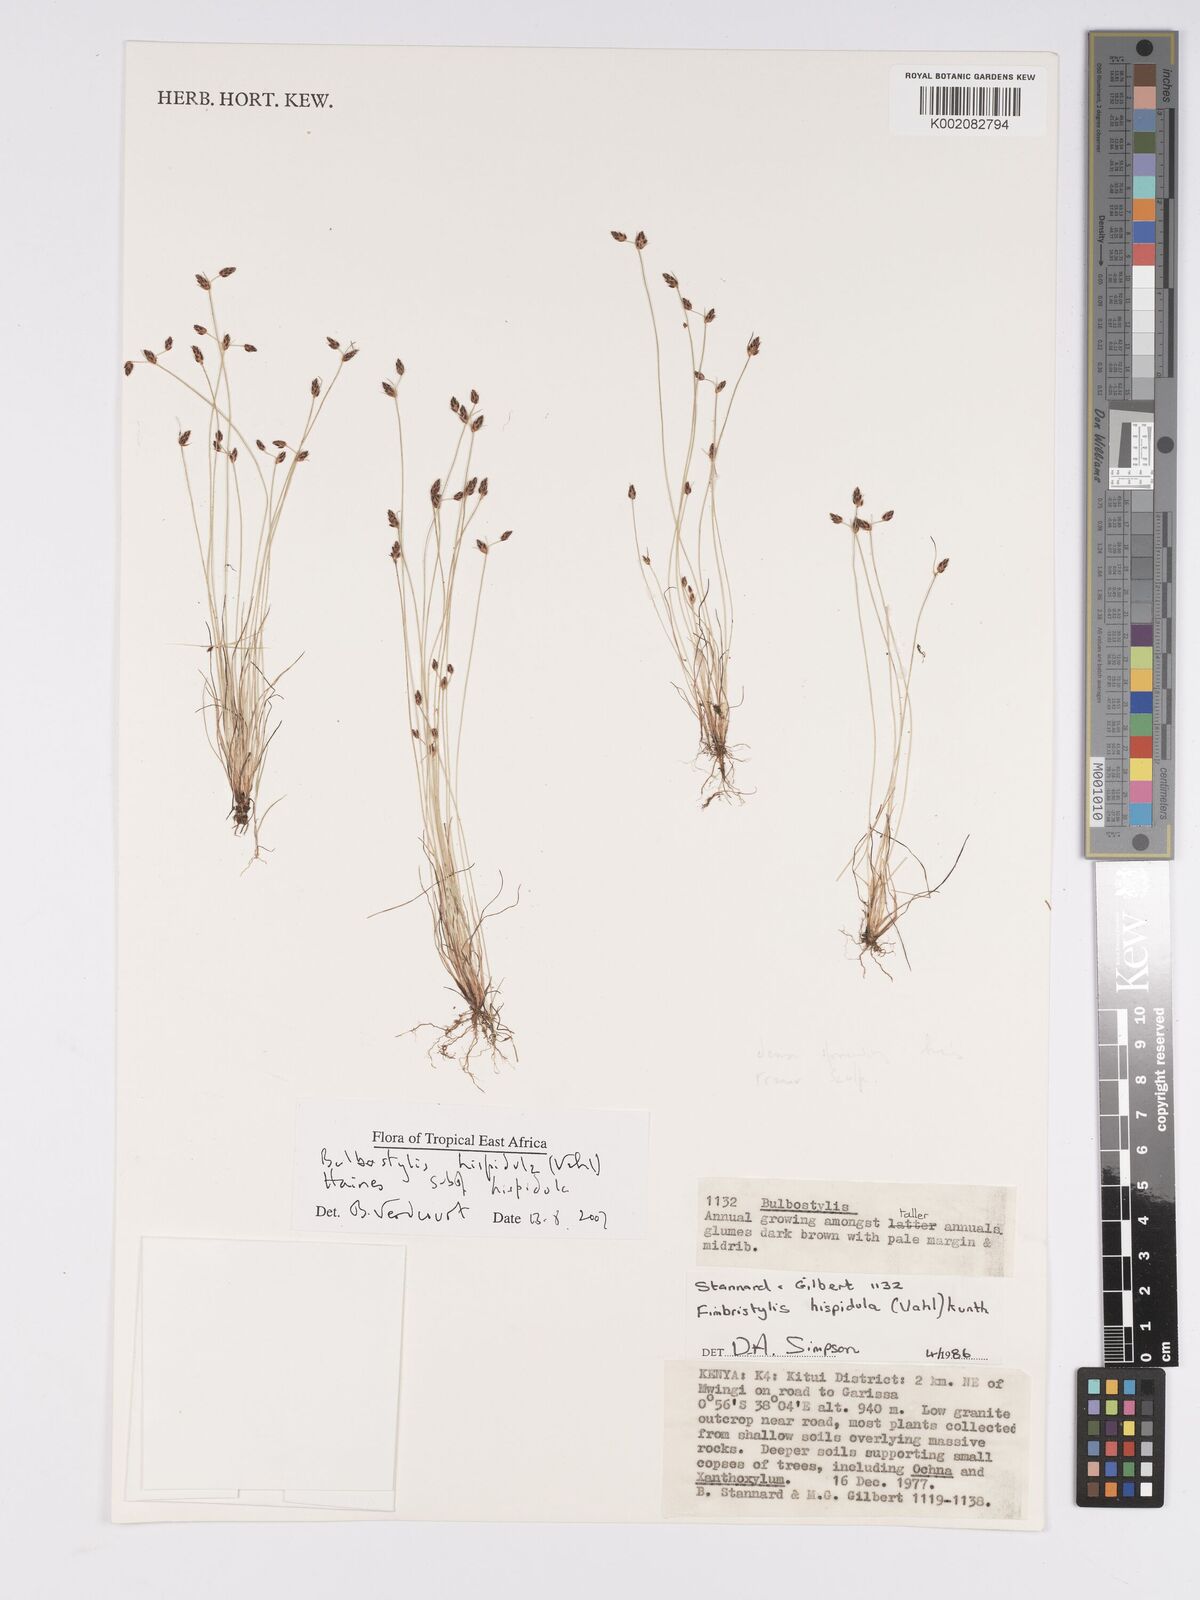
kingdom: Plantae
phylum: Tracheophyta
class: Liliopsida
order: Poales
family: Cyperaceae
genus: Bulbostylis
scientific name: Bulbostylis hispidula
